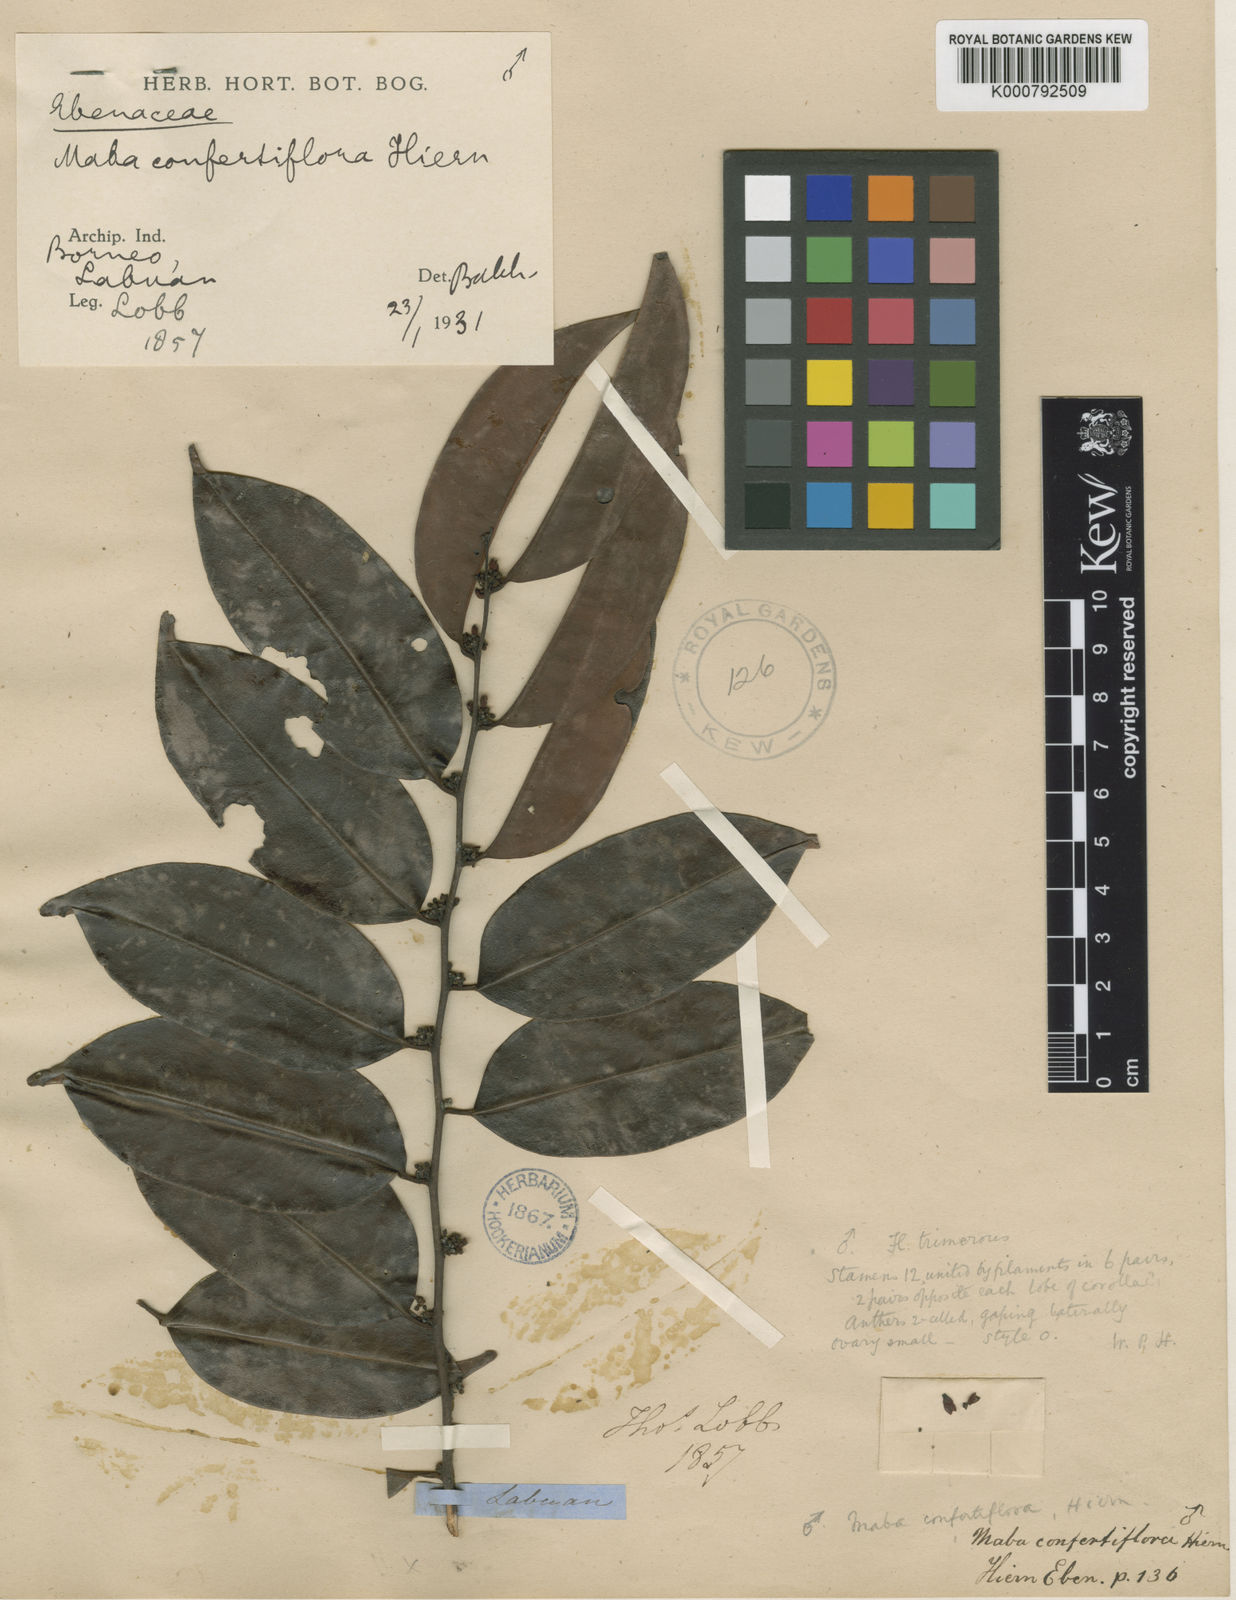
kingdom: Plantae
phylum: Tracheophyta
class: Magnoliopsida
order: Ericales
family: Ebenaceae
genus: Diospyros
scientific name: Diospyros confertiflora
